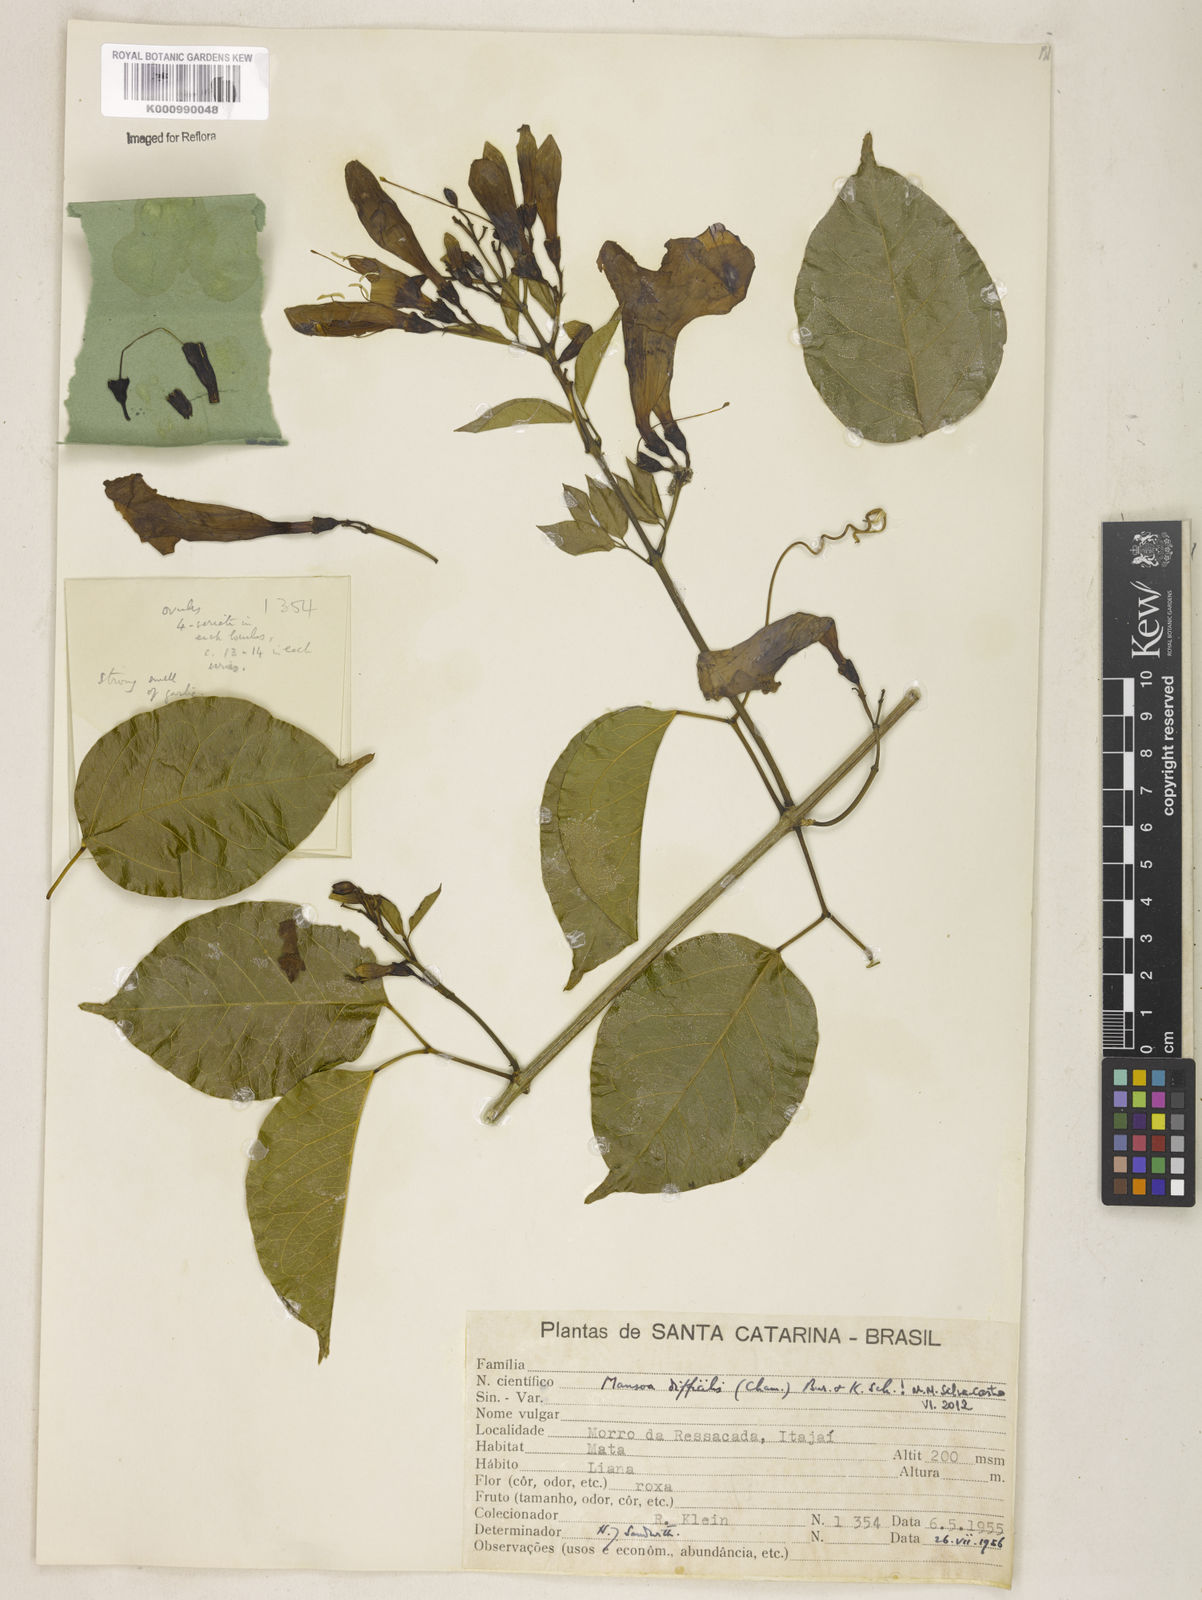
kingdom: Plantae
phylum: Tracheophyta
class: Magnoliopsida
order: Lamiales
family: Bignoniaceae
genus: Mansoa
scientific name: Mansoa difficilis
